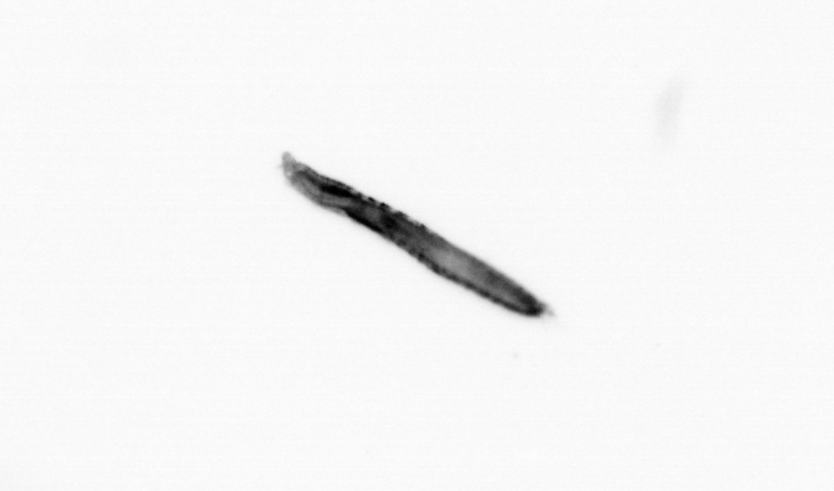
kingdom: Animalia
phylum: Annelida
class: Polychaeta
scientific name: Polychaeta
